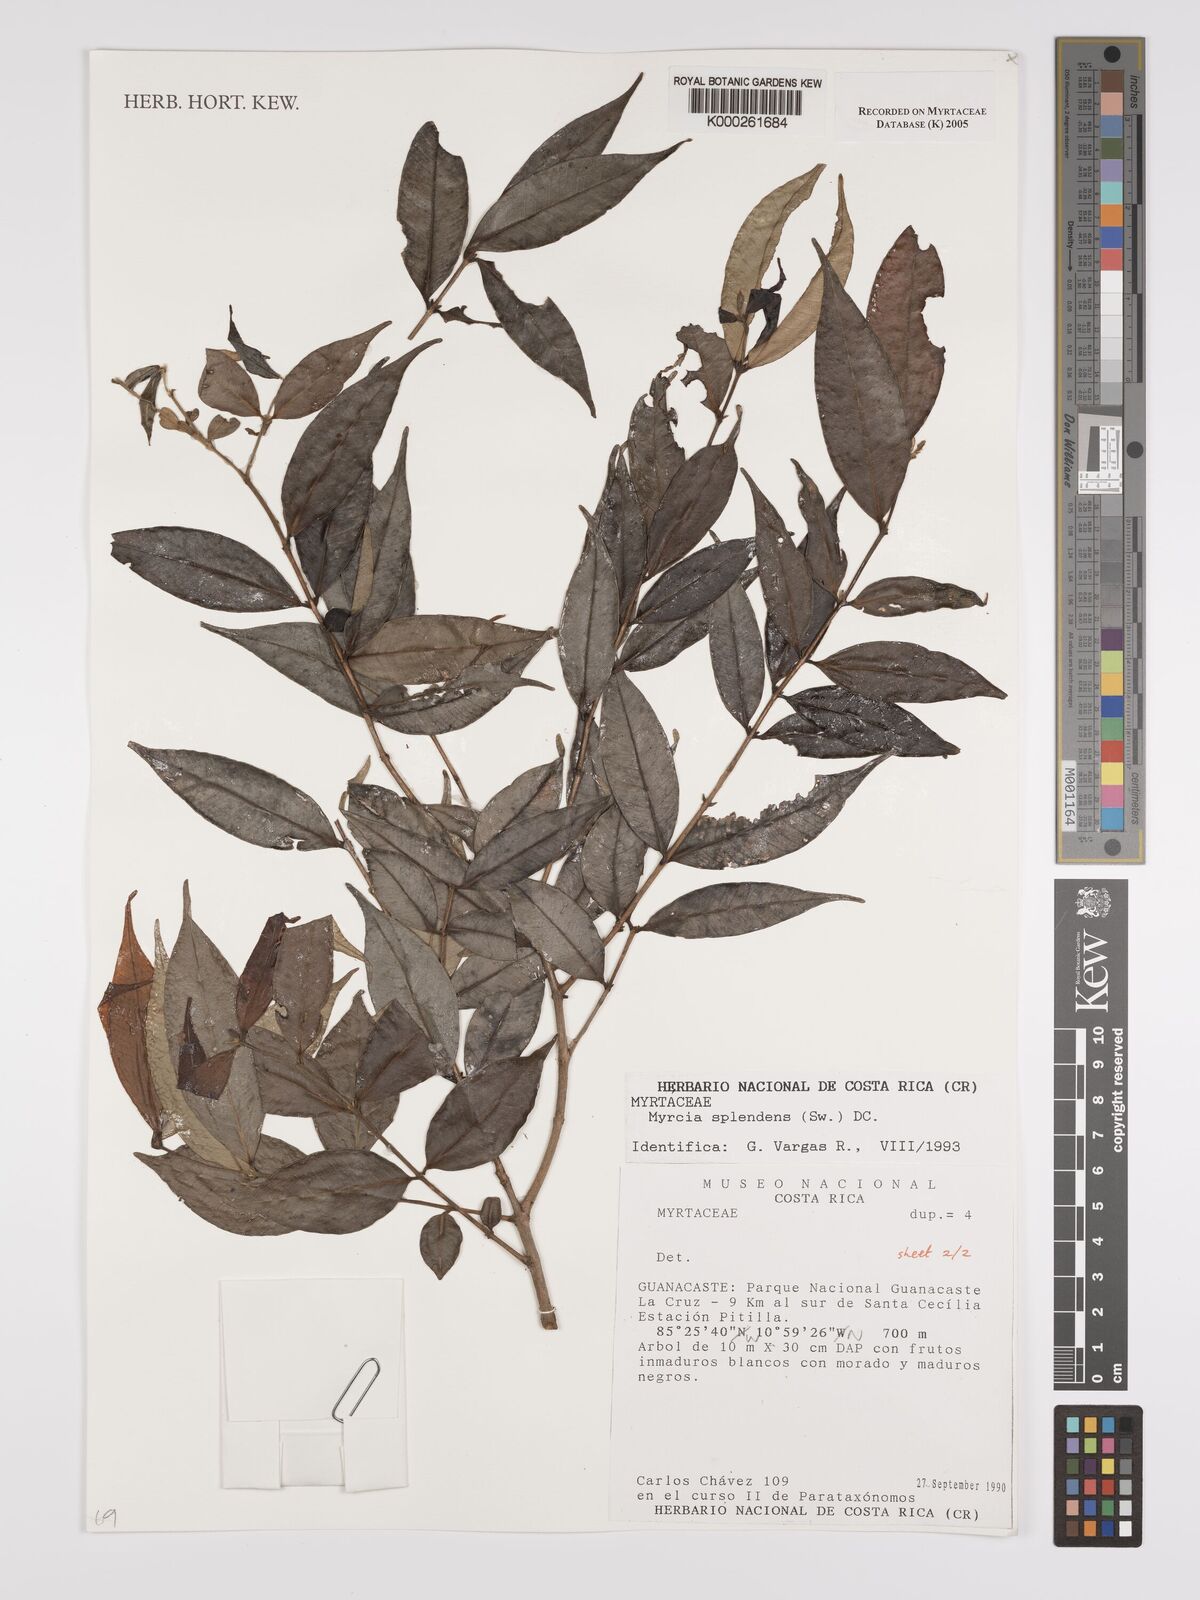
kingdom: Plantae
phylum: Tracheophyta
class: Magnoliopsida
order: Myrtales
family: Myrtaceae
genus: Myrcia
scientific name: Myrcia splendens
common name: Surinam cherry
